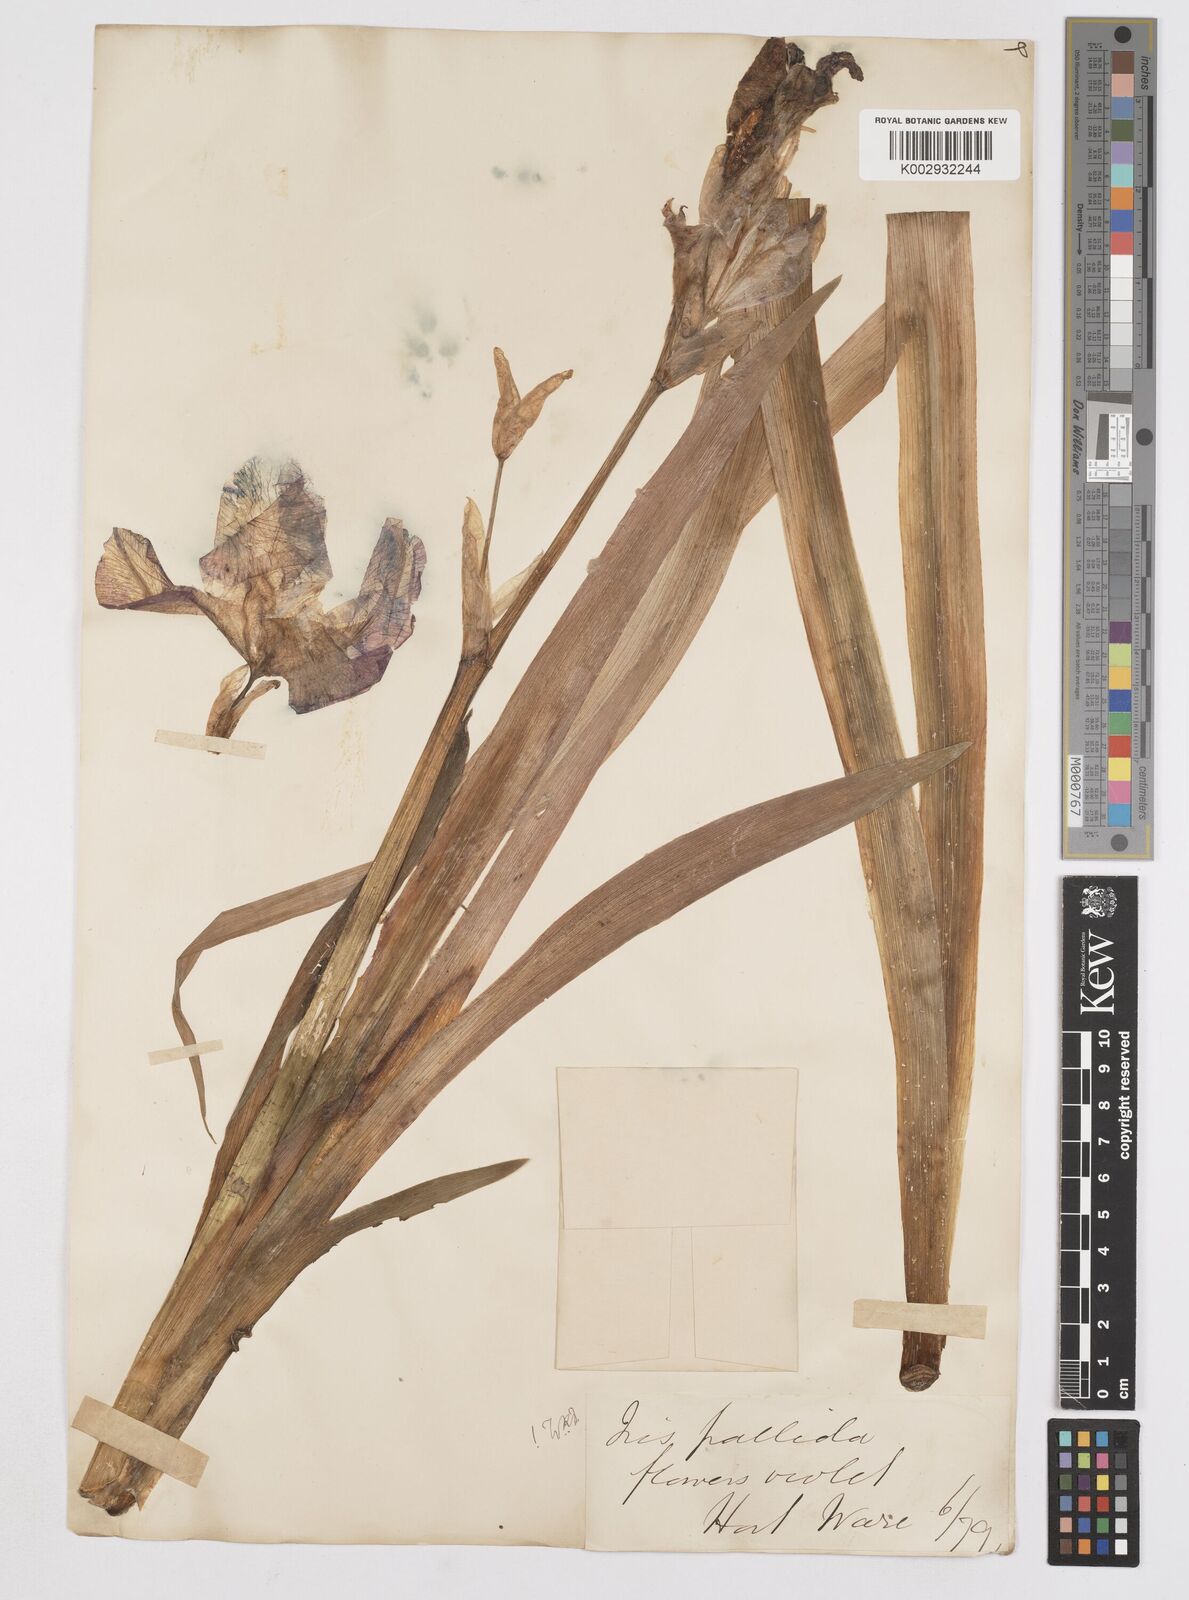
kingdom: Plantae
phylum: Tracheophyta
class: Liliopsida
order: Asparagales
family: Iridaceae
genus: Iris
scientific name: Iris germanica
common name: German iris
